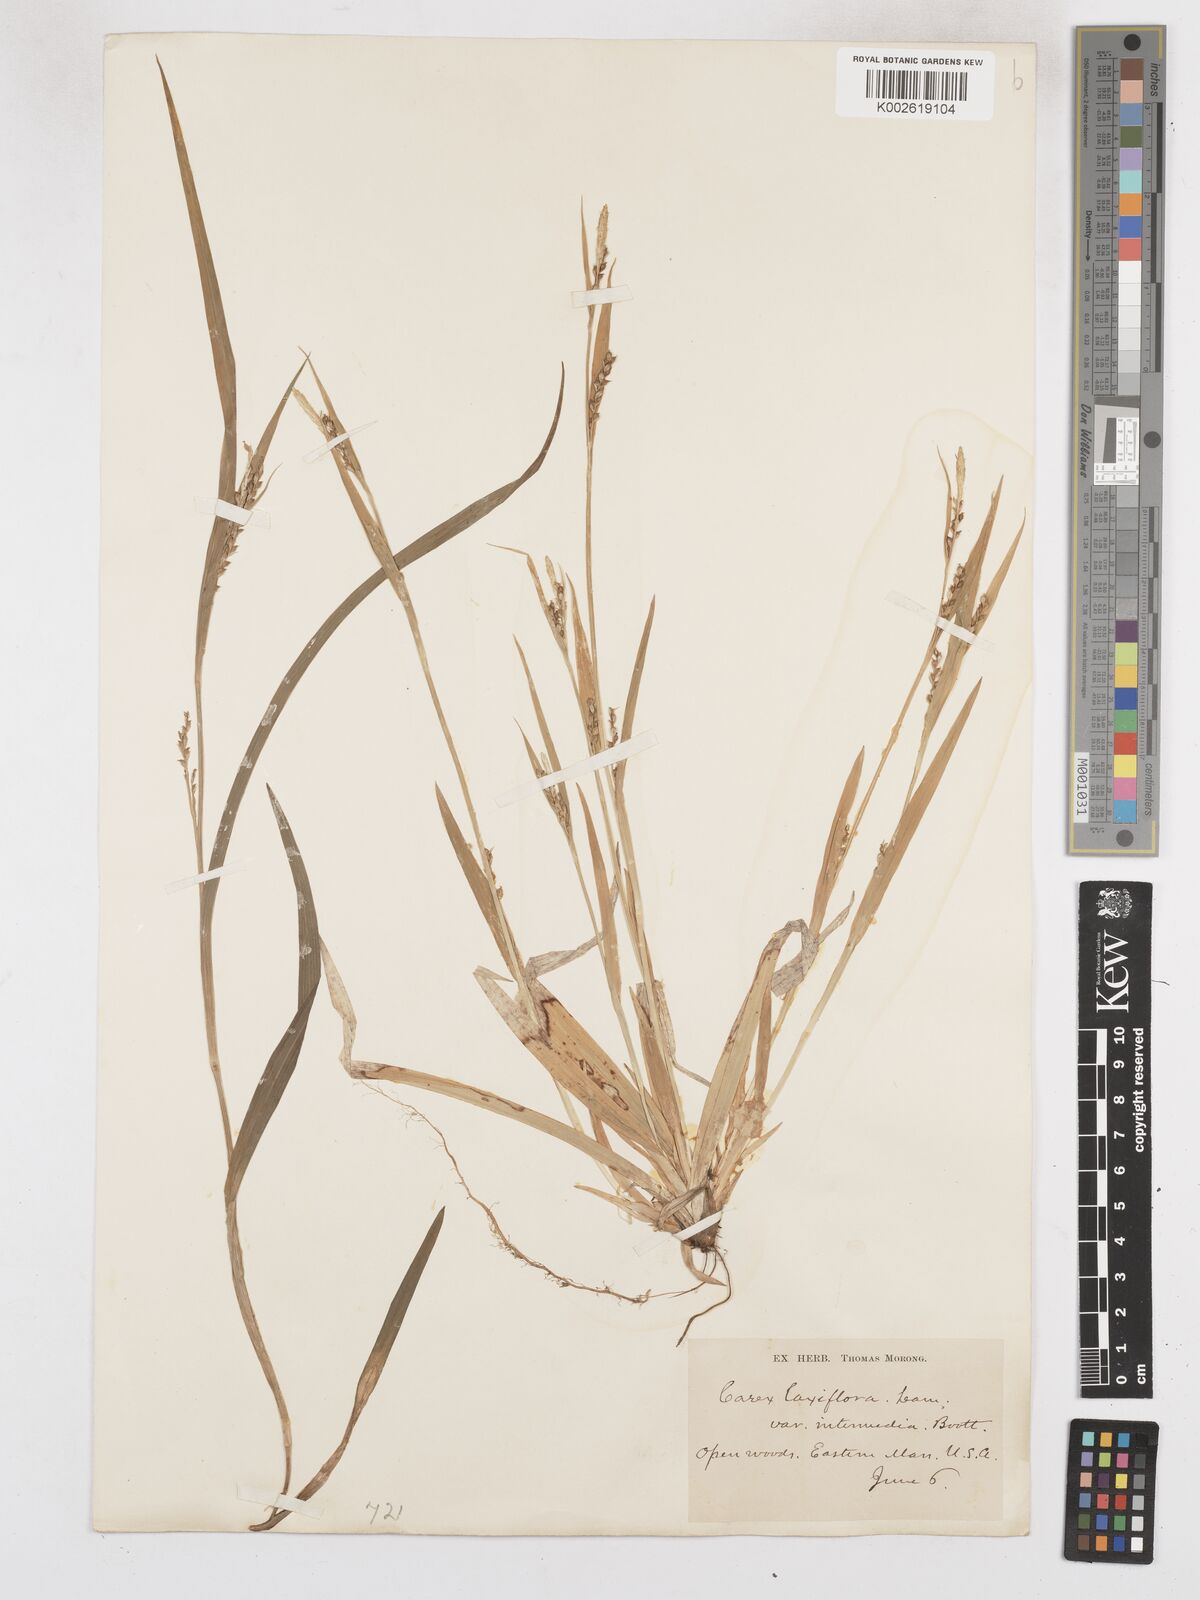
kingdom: Plantae
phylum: Tracheophyta
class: Liliopsida
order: Poales
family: Cyperaceae
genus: Carex
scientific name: Carex laxiflora
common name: Beech wood sedge
